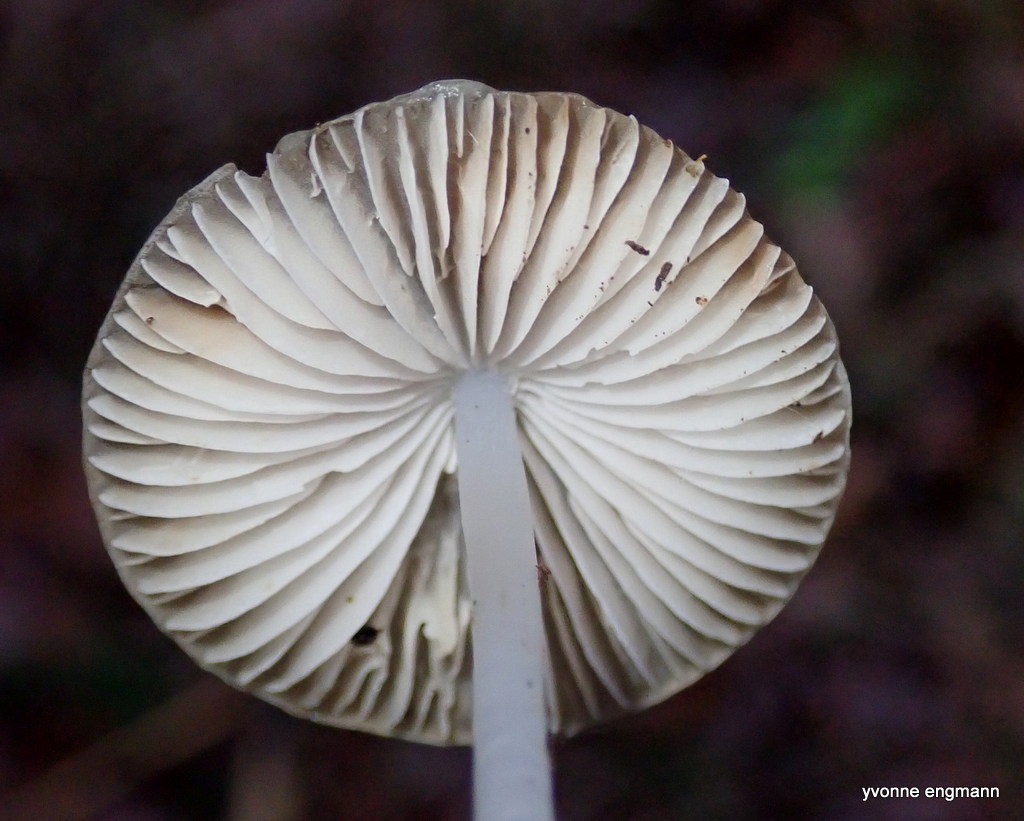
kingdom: Fungi
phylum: Basidiomycota
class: Agaricomycetes
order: Agaricales
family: Mycenaceae
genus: Mycena
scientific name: Mycena vitilis
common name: blankstokket huesvamp
